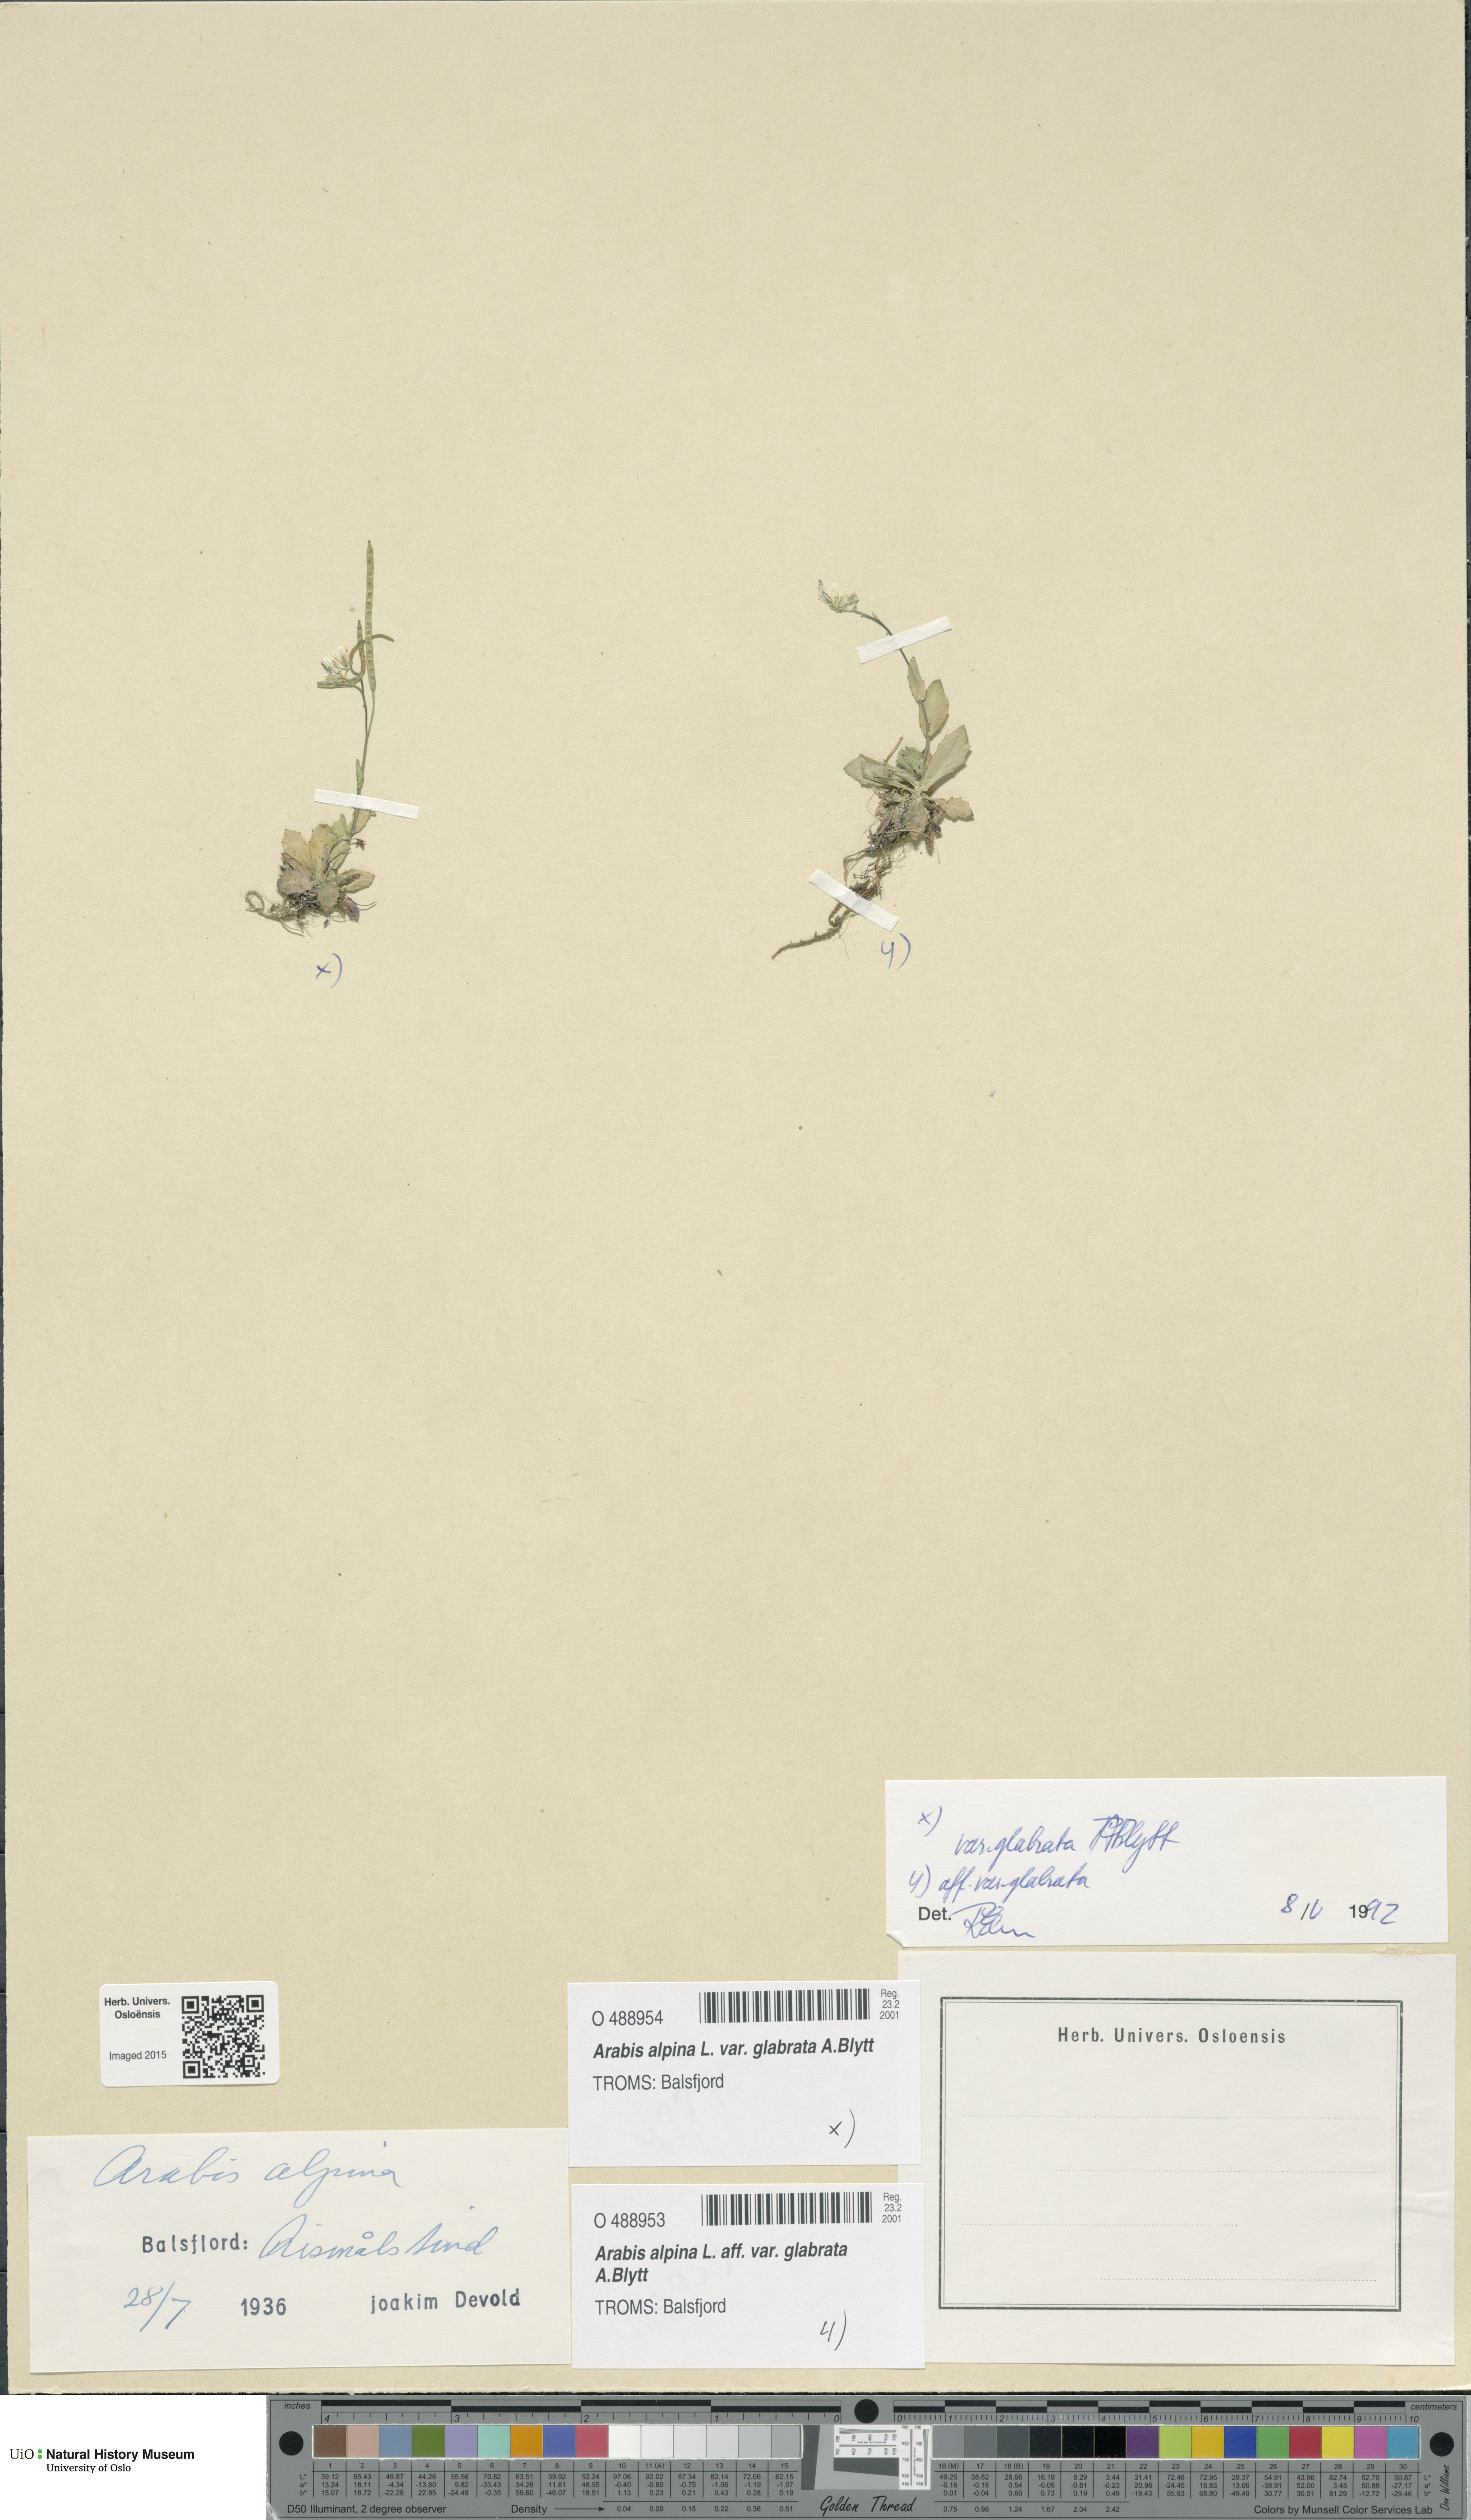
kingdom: Plantae
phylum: Tracheophyta
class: Magnoliopsida
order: Brassicales
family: Brassicaceae
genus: Arabis
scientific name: Arabis alpina
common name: Alpine rock-cress
